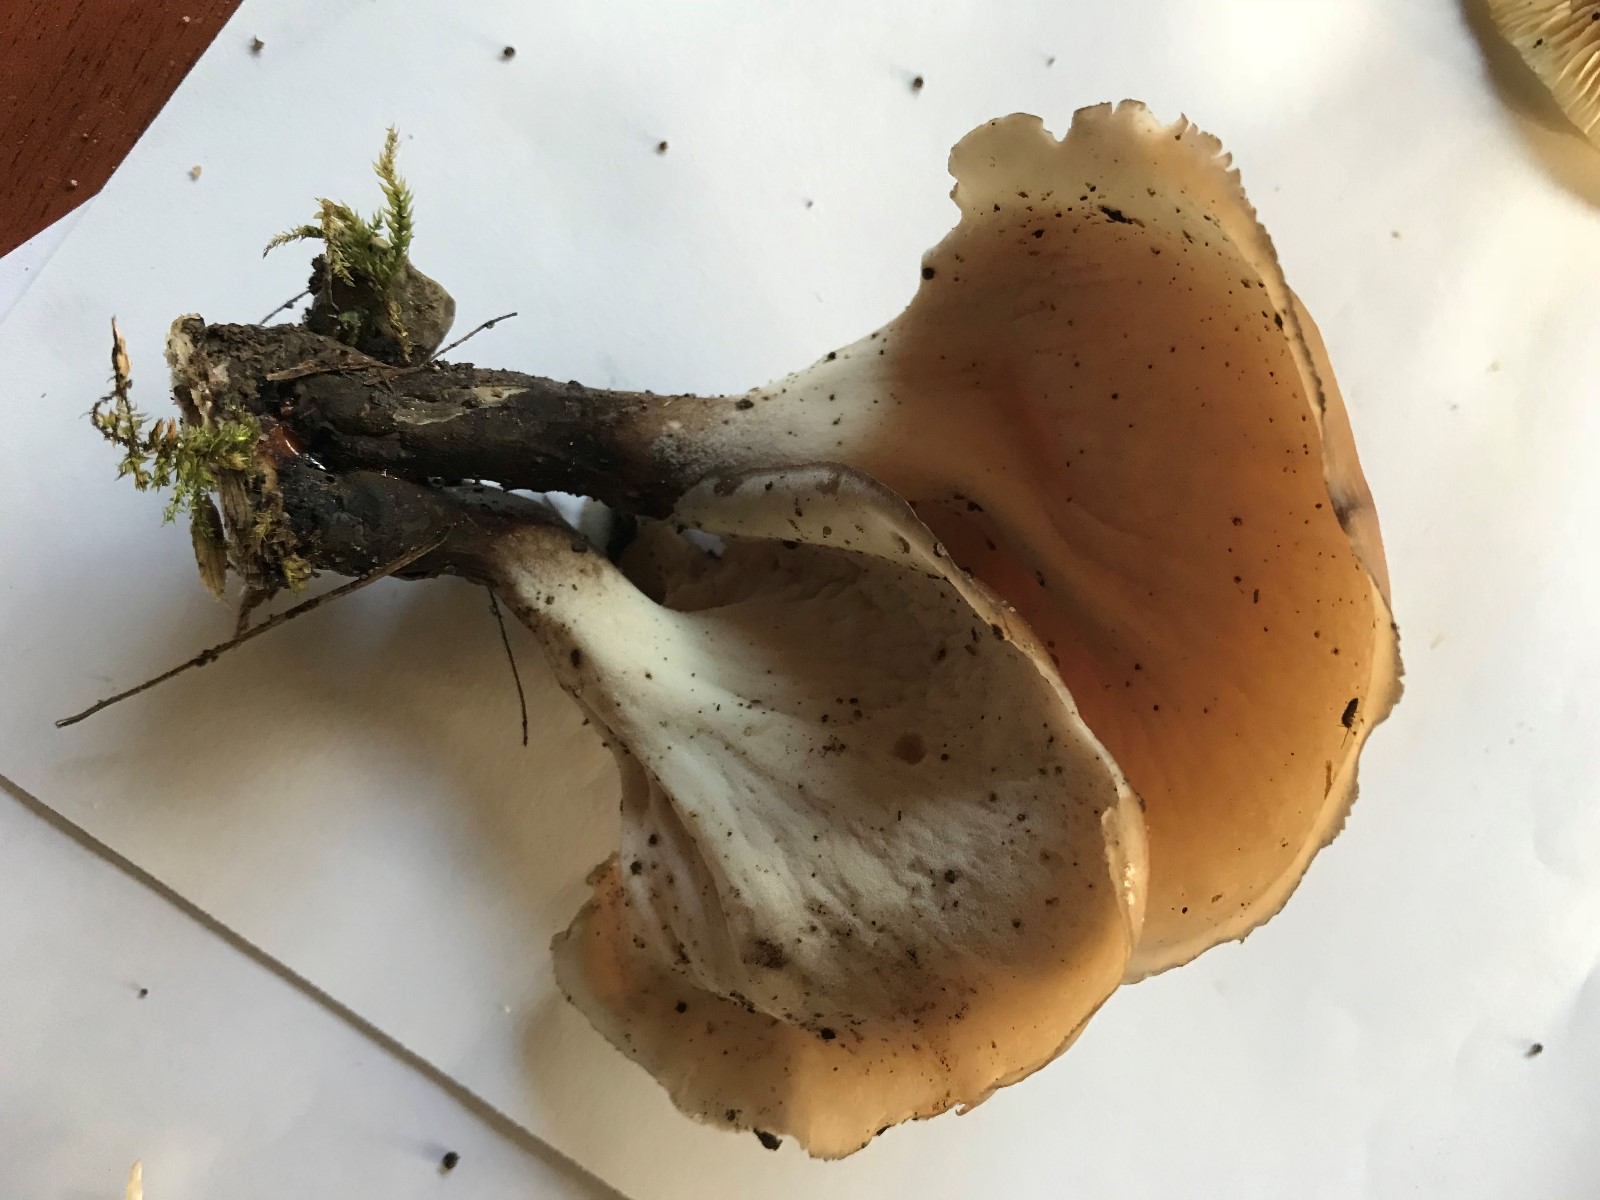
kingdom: Fungi
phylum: Basidiomycota
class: Agaricomycetes
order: Polyporales
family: Polyporaceae
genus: Picipes
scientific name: Picipes badius
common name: kastaniebrun stilkporesvamp
